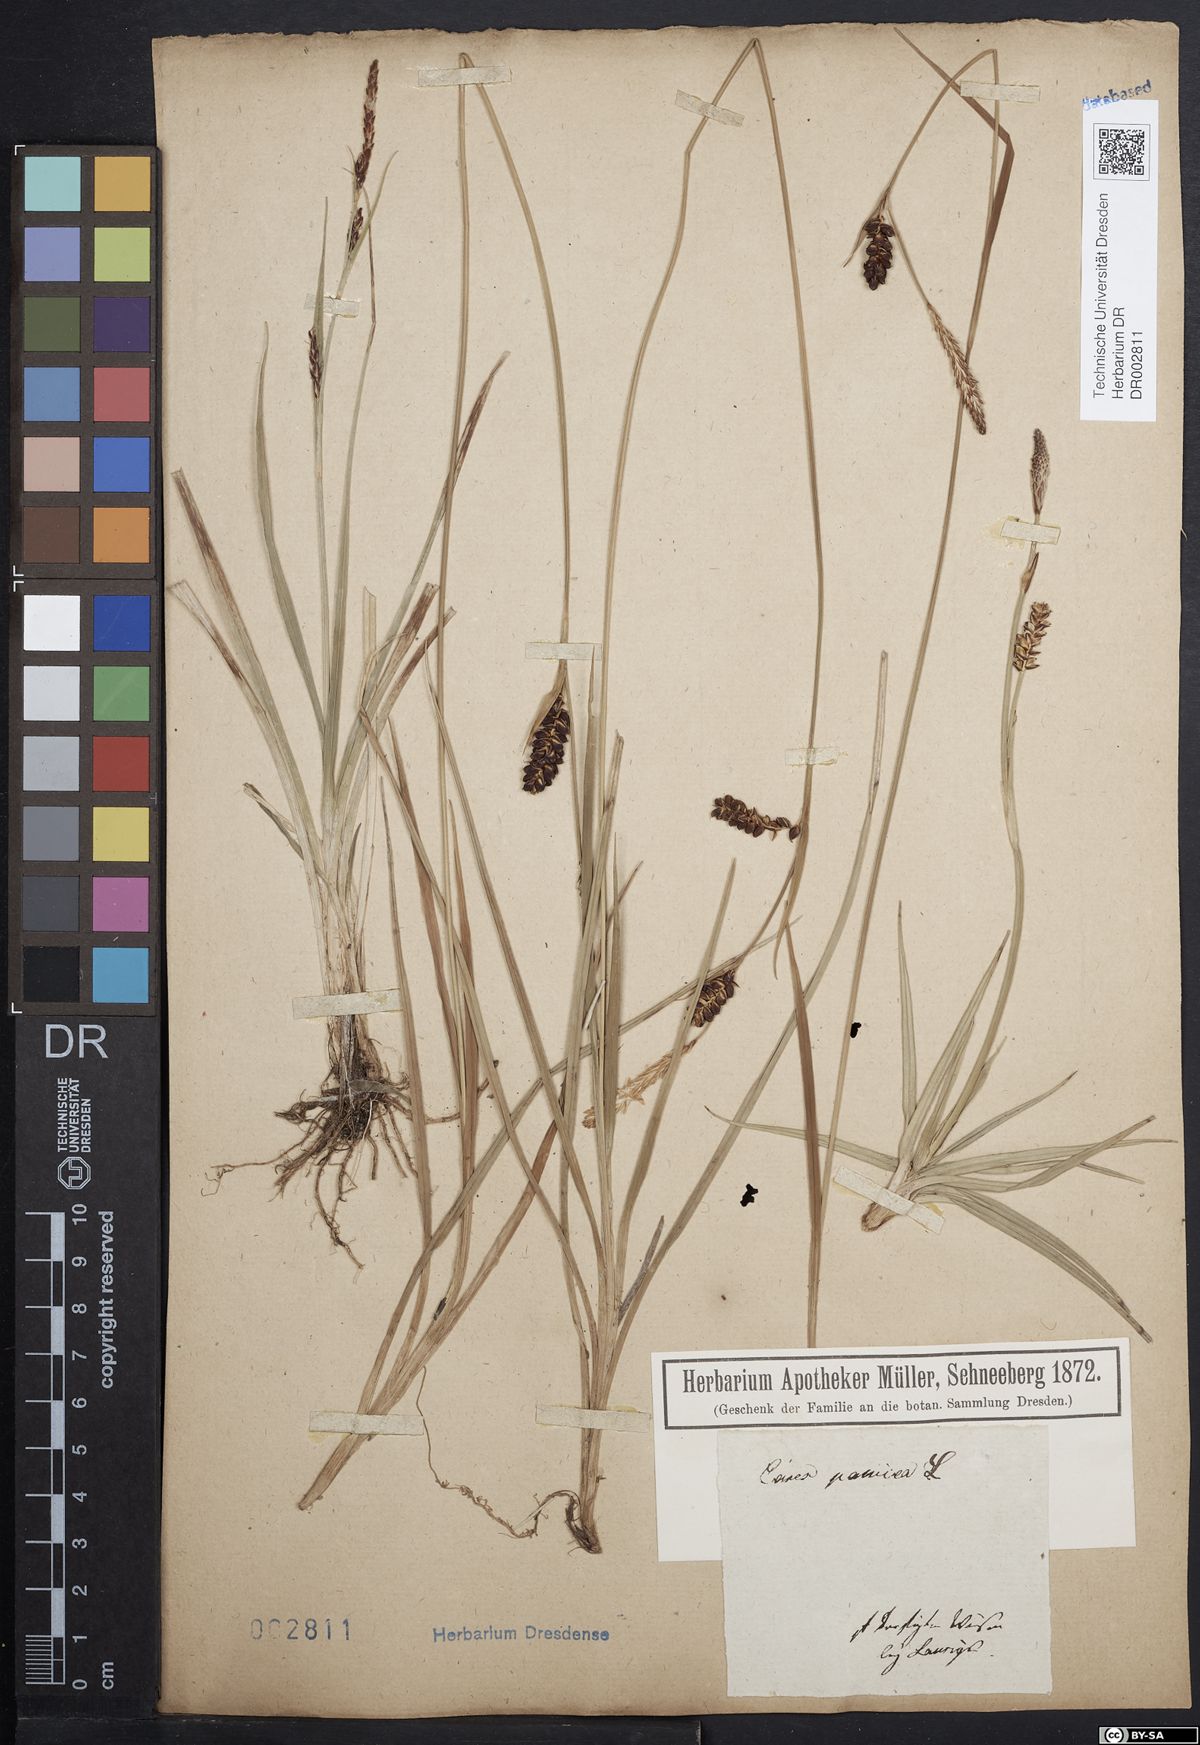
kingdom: Plantae
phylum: Tracheophyta
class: Liliopsida
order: Poales
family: Cyperaceae
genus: Carex
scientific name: Carex panicea
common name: Carnation sedge
